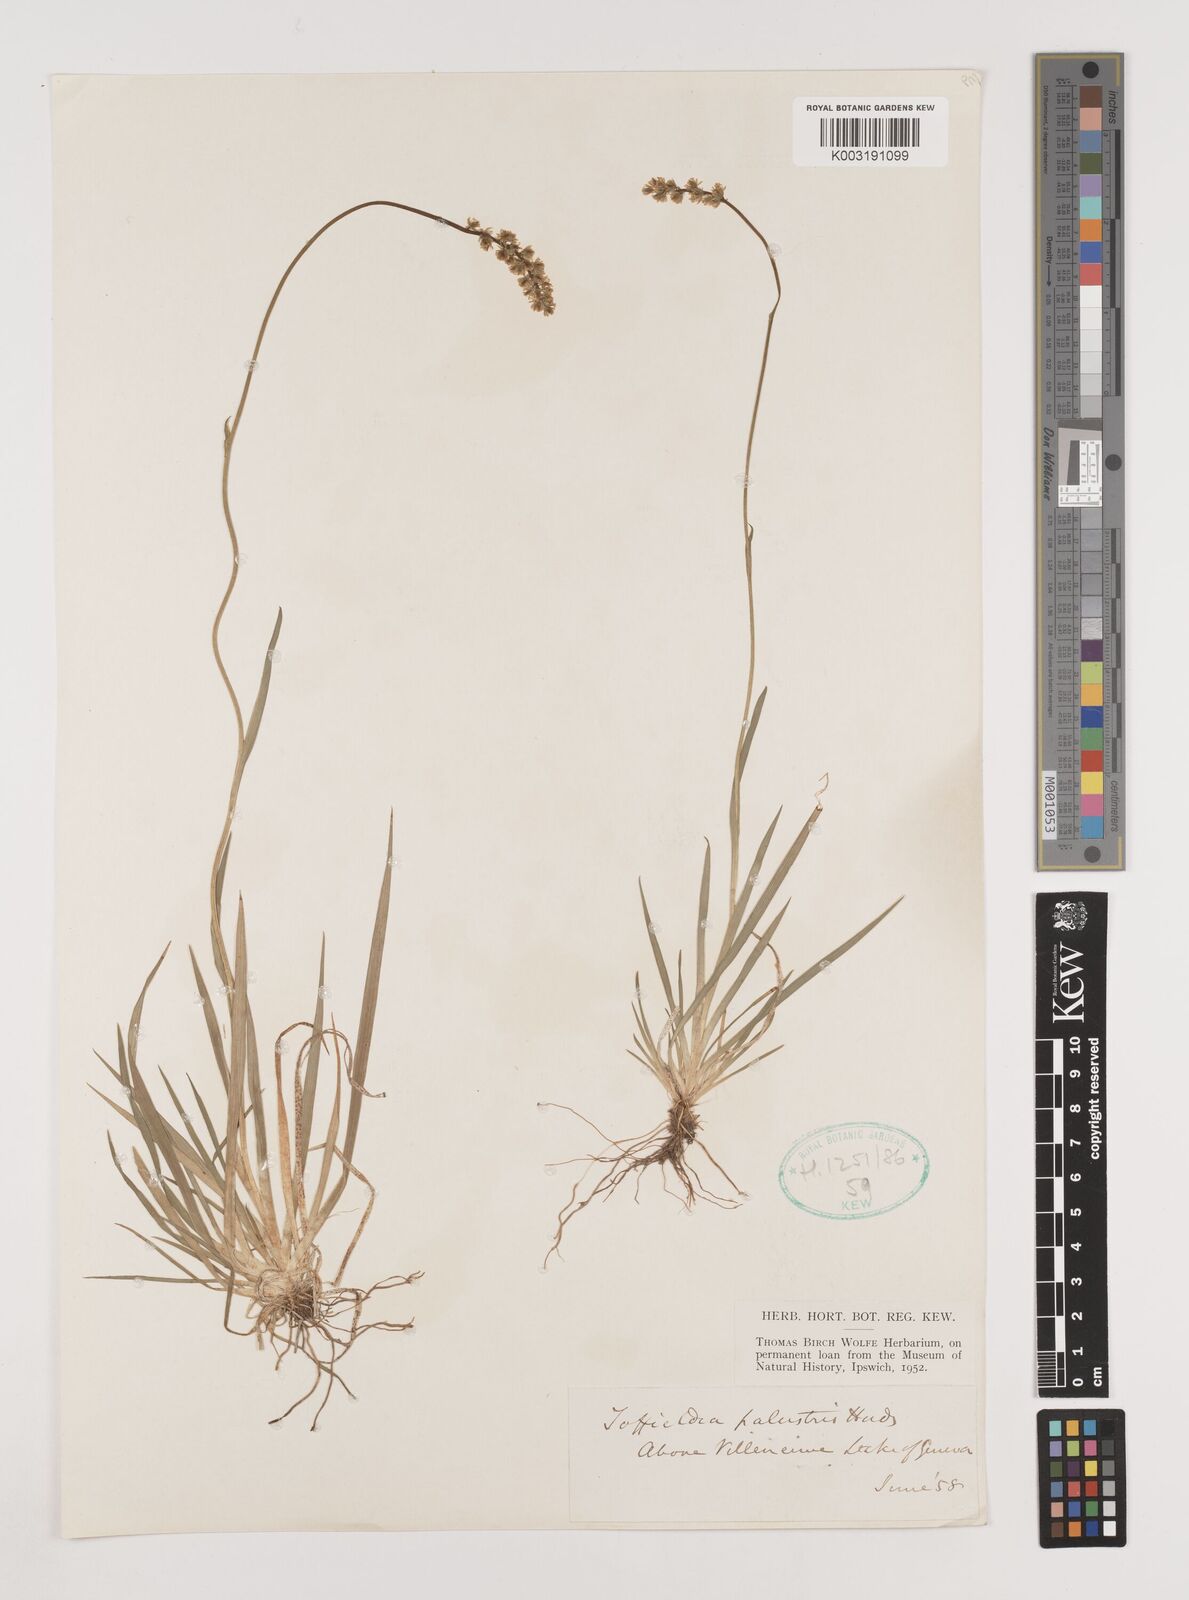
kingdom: Plantae
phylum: Tracheophyta
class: Liliopsida
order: Alismatales
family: Tofieldiaceae
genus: Tofieldia
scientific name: Tofieldia pusilla
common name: Scottish false asphodel
